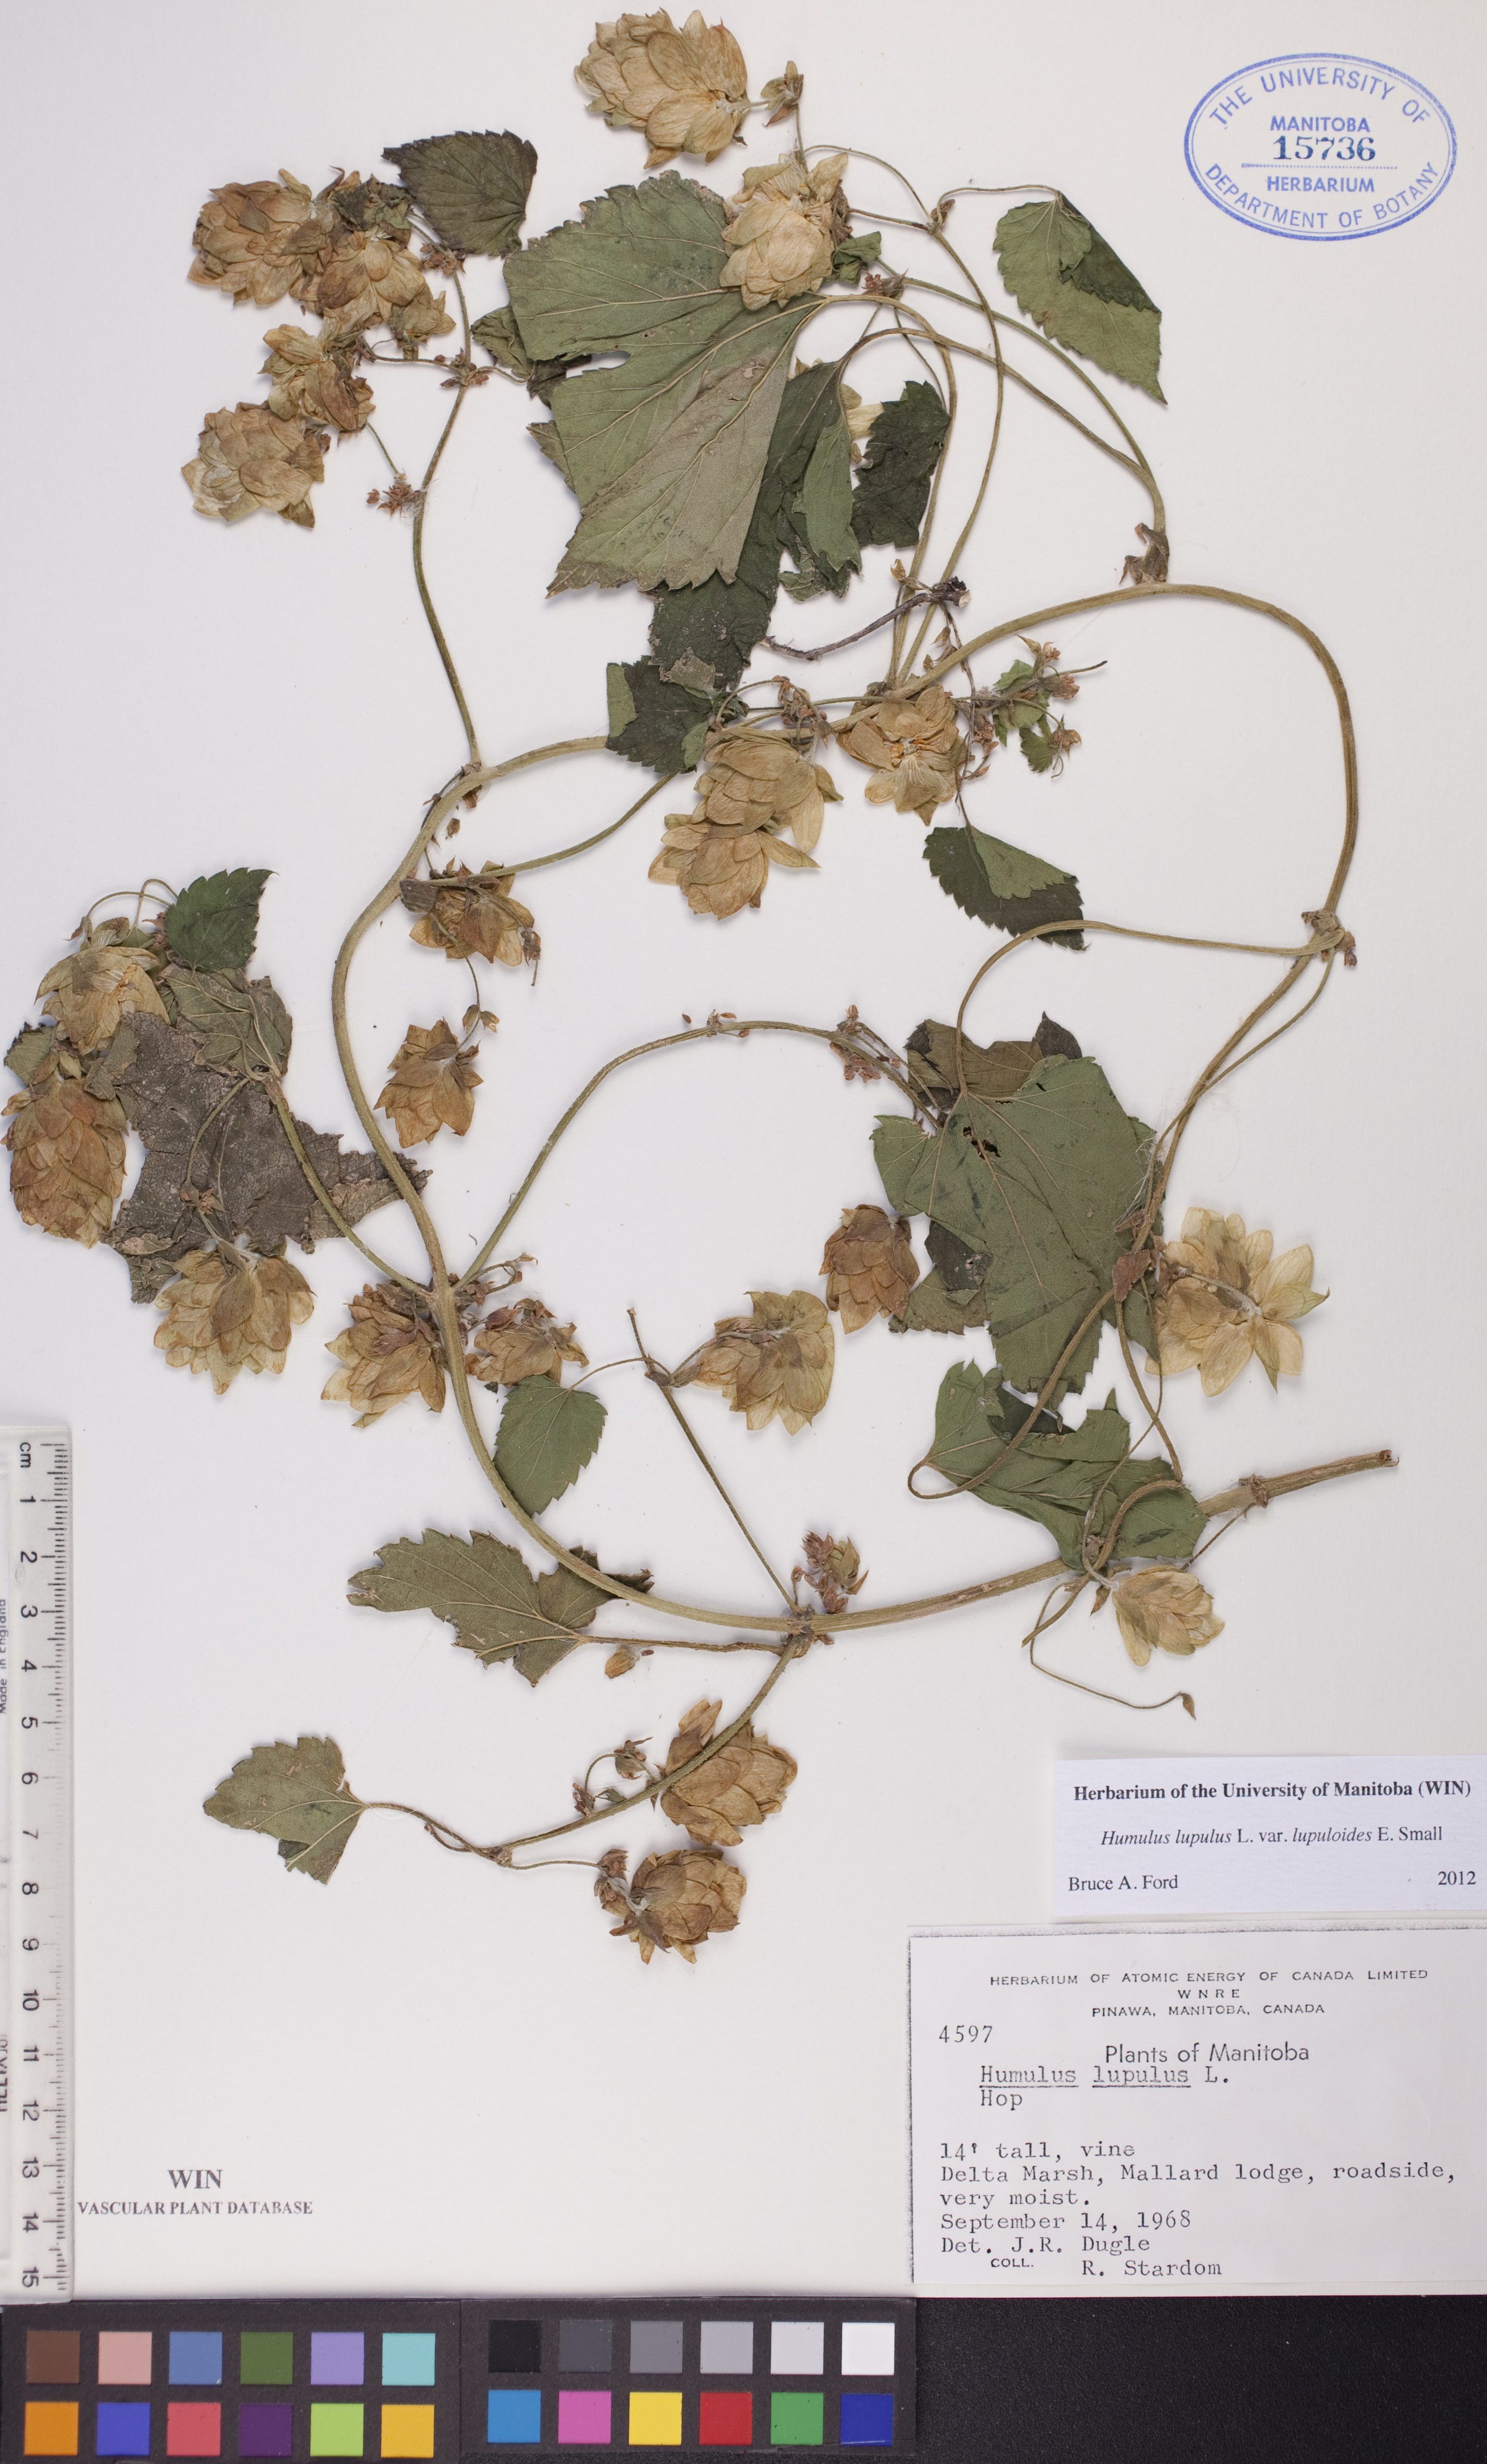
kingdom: Plantae
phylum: Tracheophyta
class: Magnoliopsida
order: Rosales
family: Cannabaceae
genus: Humulus
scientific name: Humulus americanus
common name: American hops
